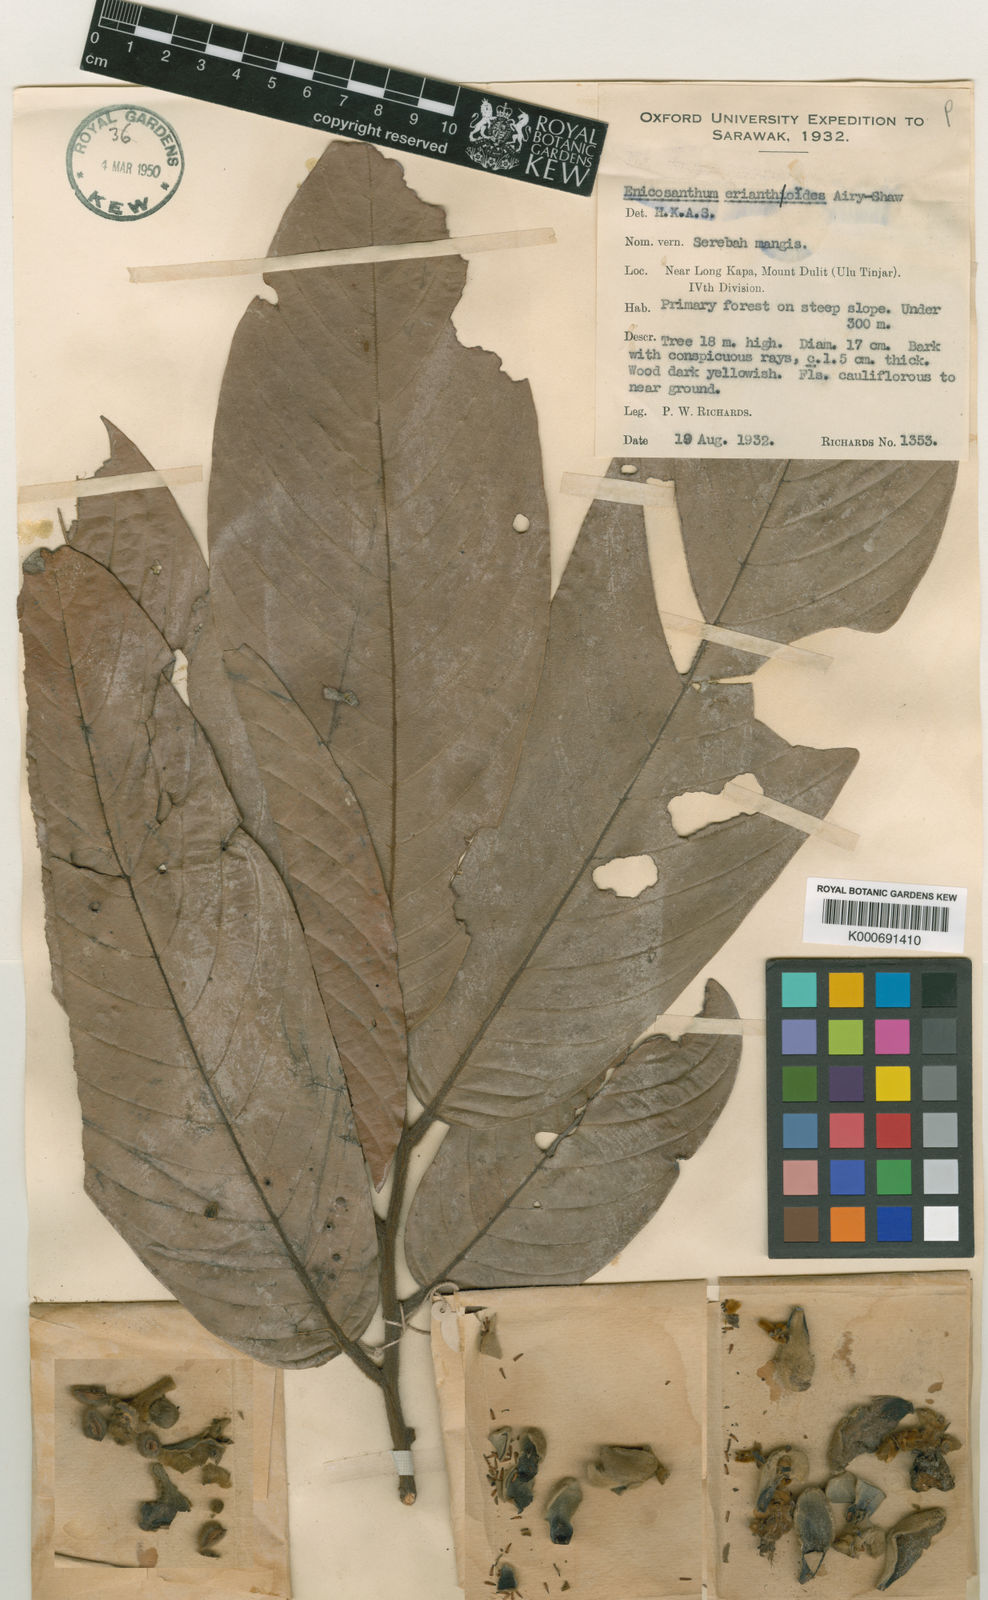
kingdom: Plantae
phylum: Tracheophyta
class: Magnoliopsida
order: Magnoliales
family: Annonaceae
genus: Enicosanthum
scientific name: Enicosanthum erianthoides
